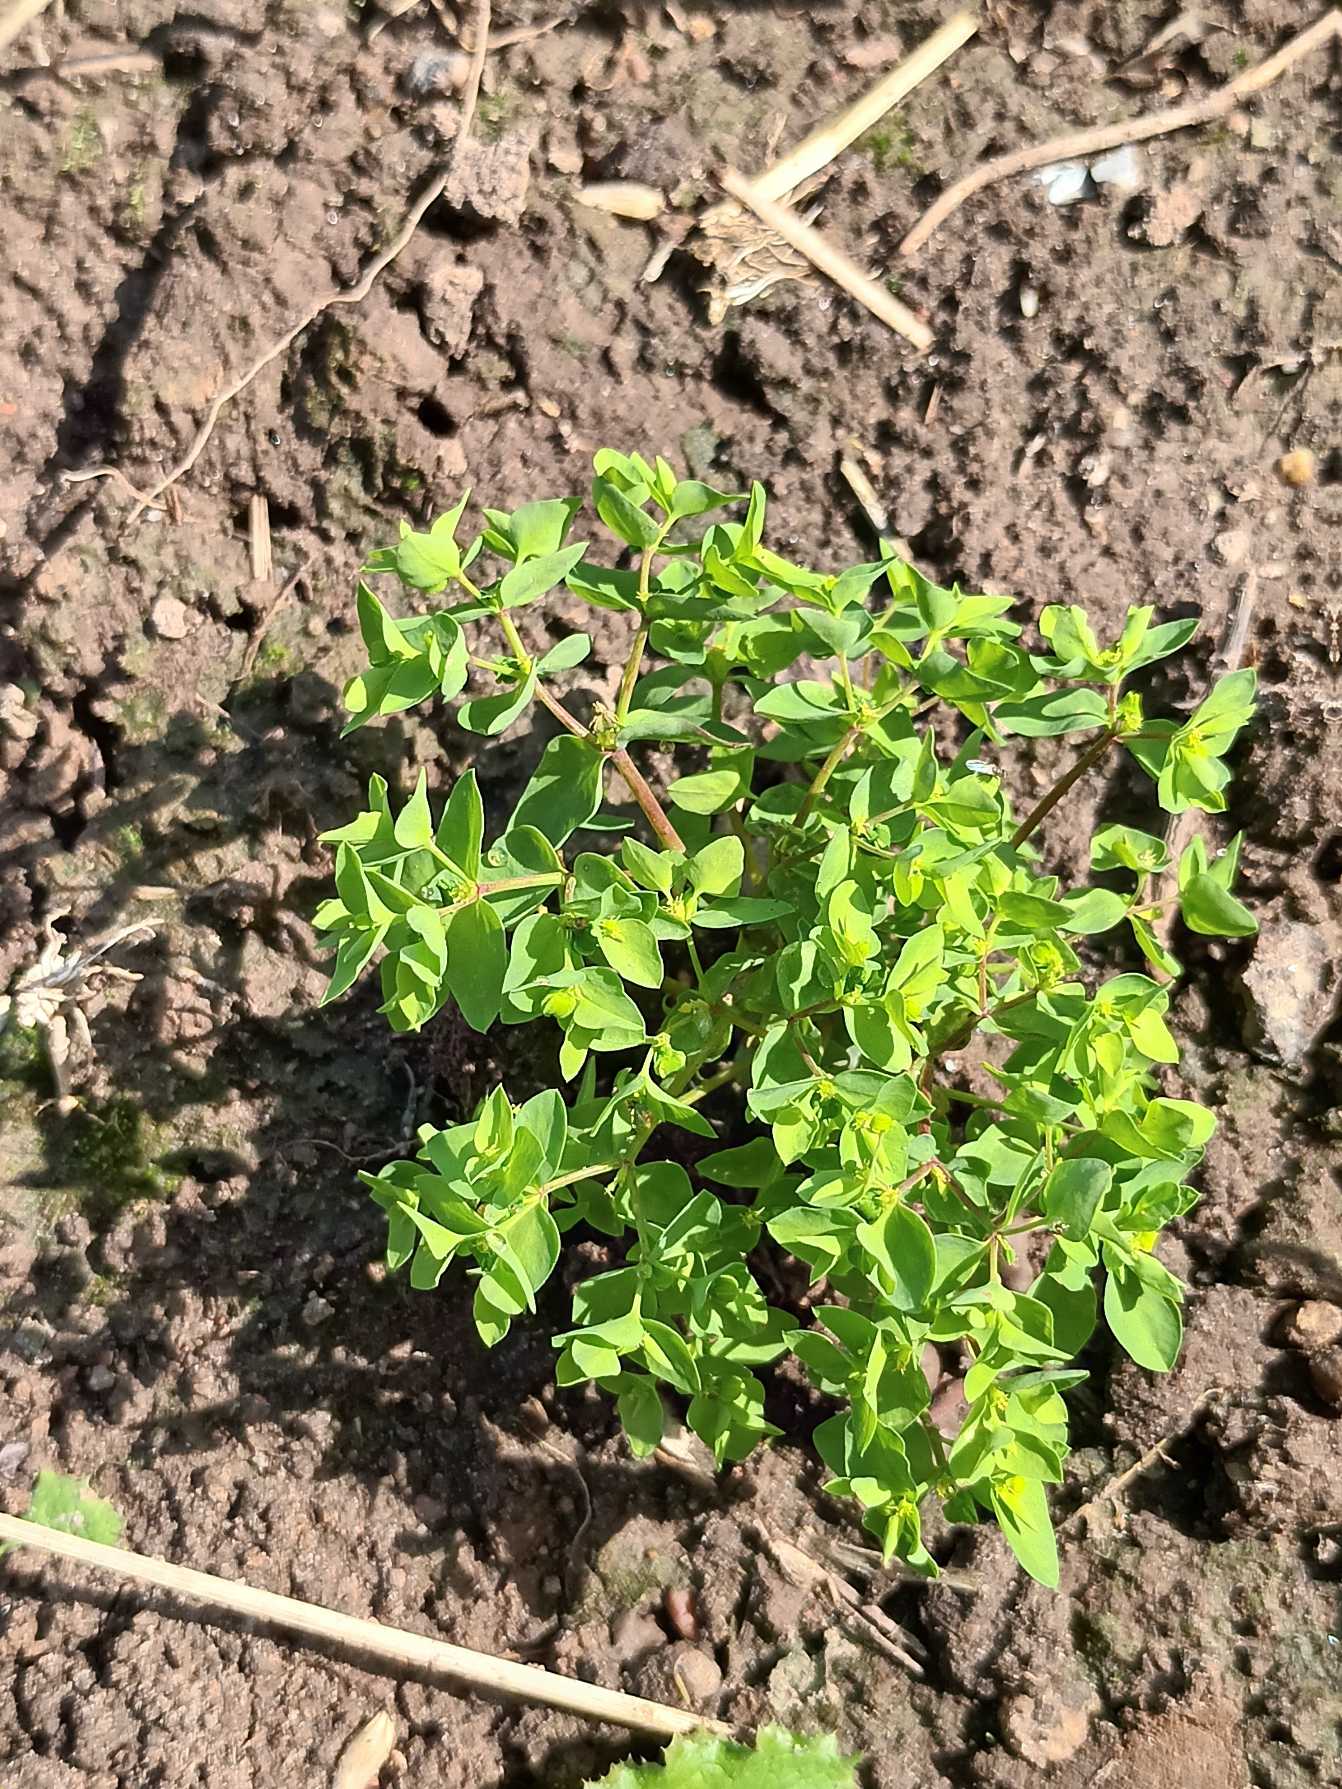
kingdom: Plantae
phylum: Tracheophyta
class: Magnoliopsida
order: Malpighiales
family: Euphorbiaceae
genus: Euphorbia
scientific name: Euphorbia peplus
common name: Gaffel-vortemælk
